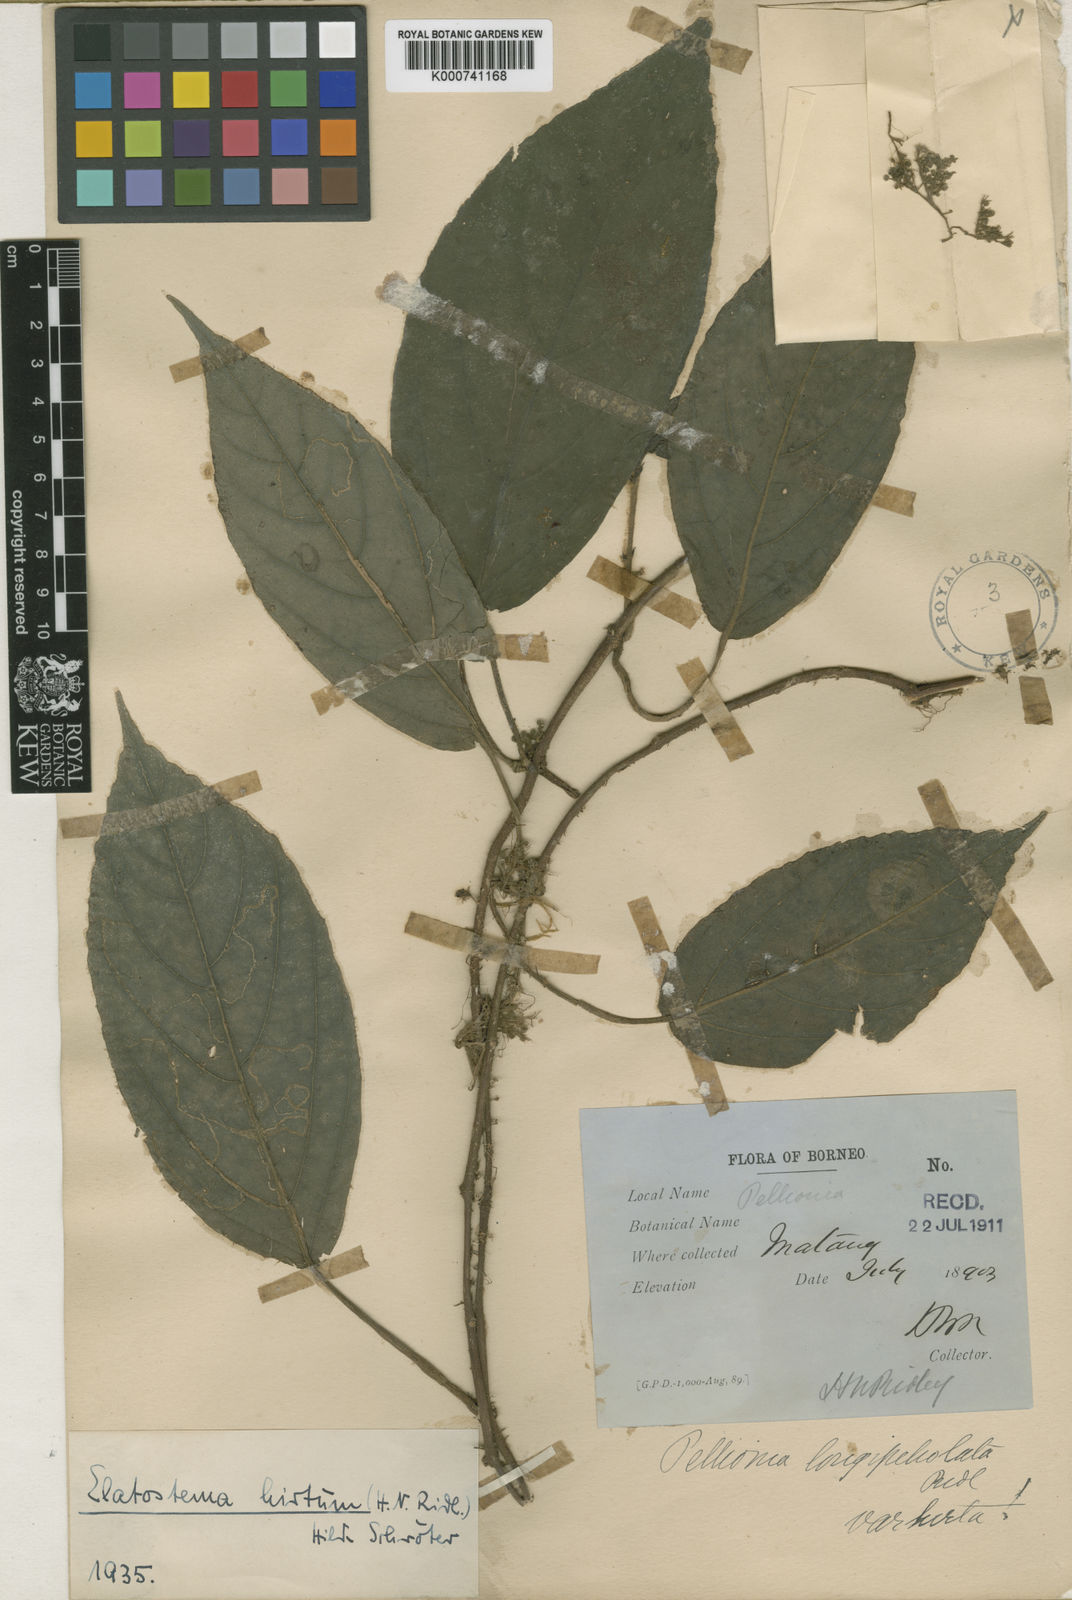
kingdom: Plantae
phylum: Tracheophyta
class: Magnoliopsida
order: Rosales
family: Urticaceae
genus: Elatostematoides
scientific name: Elatostematoides hirtum
